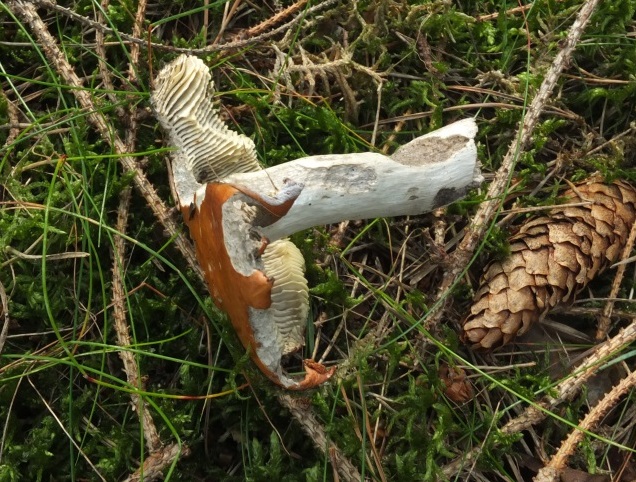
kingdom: Fungi
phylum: Basidiomycota
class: Agaricomycetes
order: Russulales
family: Russulaceae
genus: Russula
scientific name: Russula decolorans
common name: afblegende skørhat
